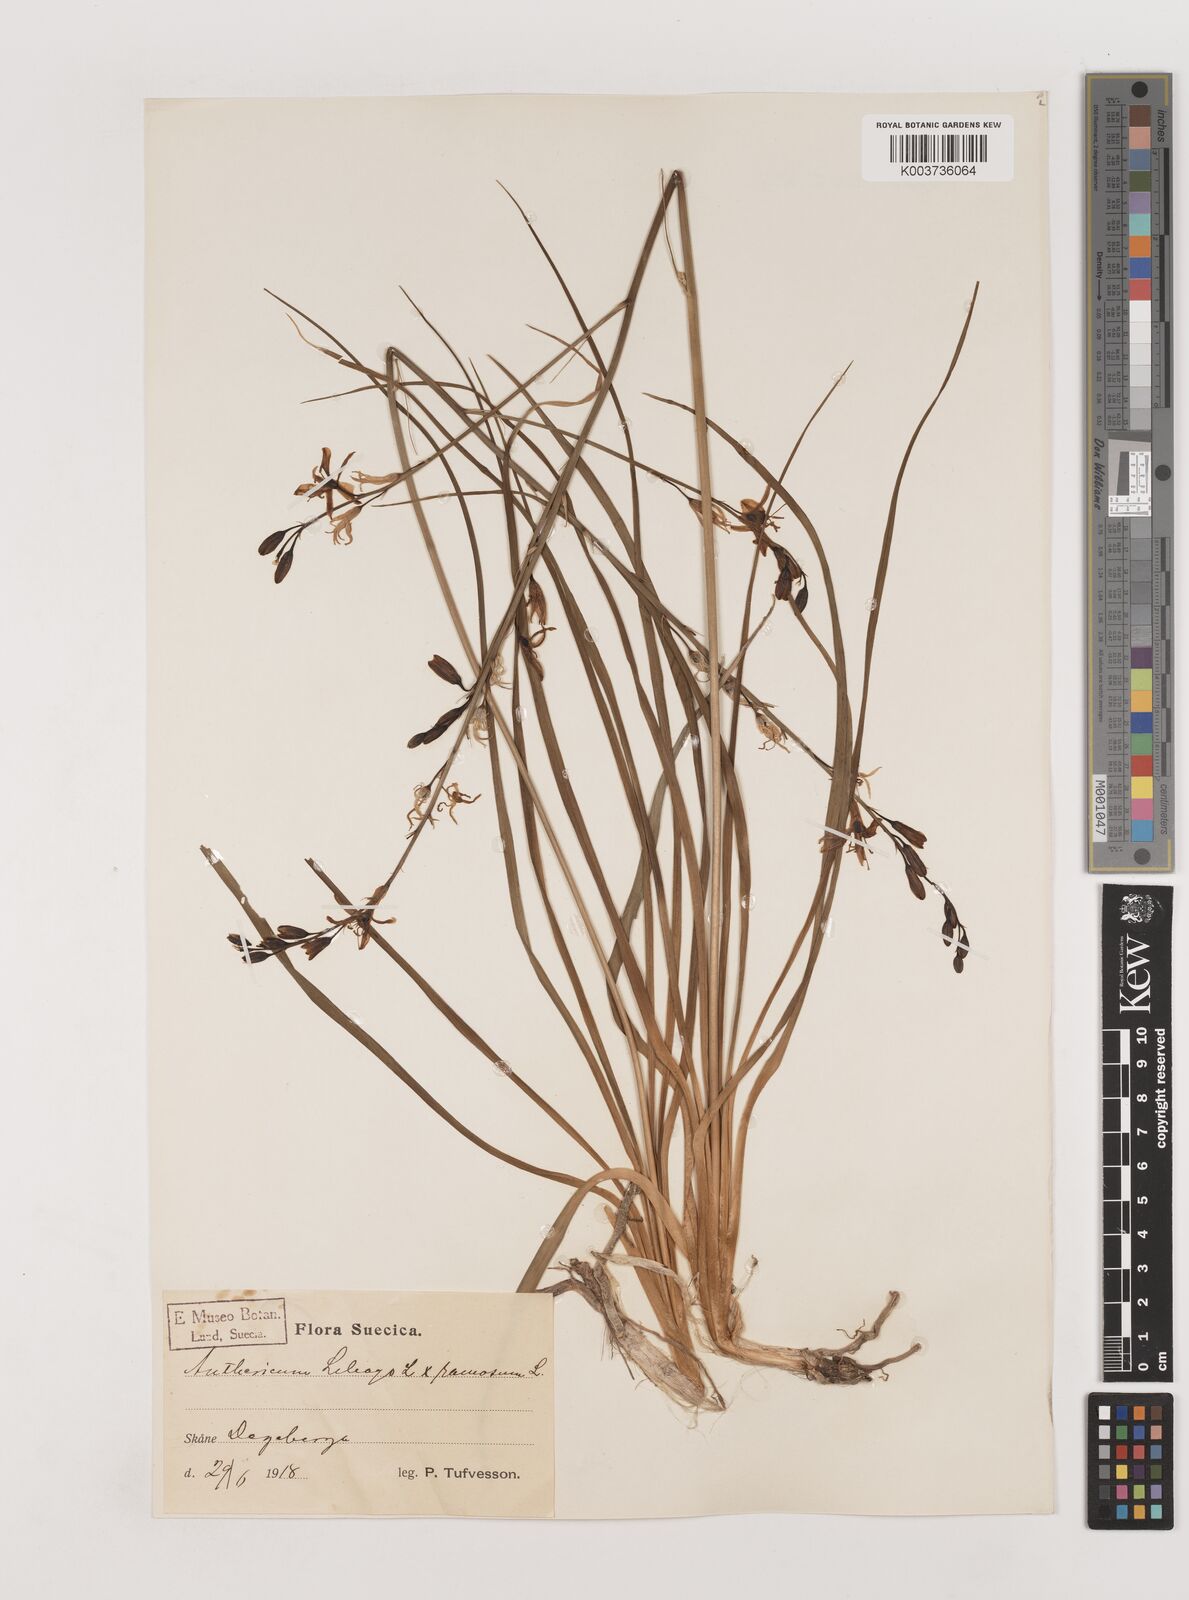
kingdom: Plantae
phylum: Tracheophyta
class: Liliopsida
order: Asparagales
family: Asparagaceae
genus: Anthericum
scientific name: Anthericum liliago
